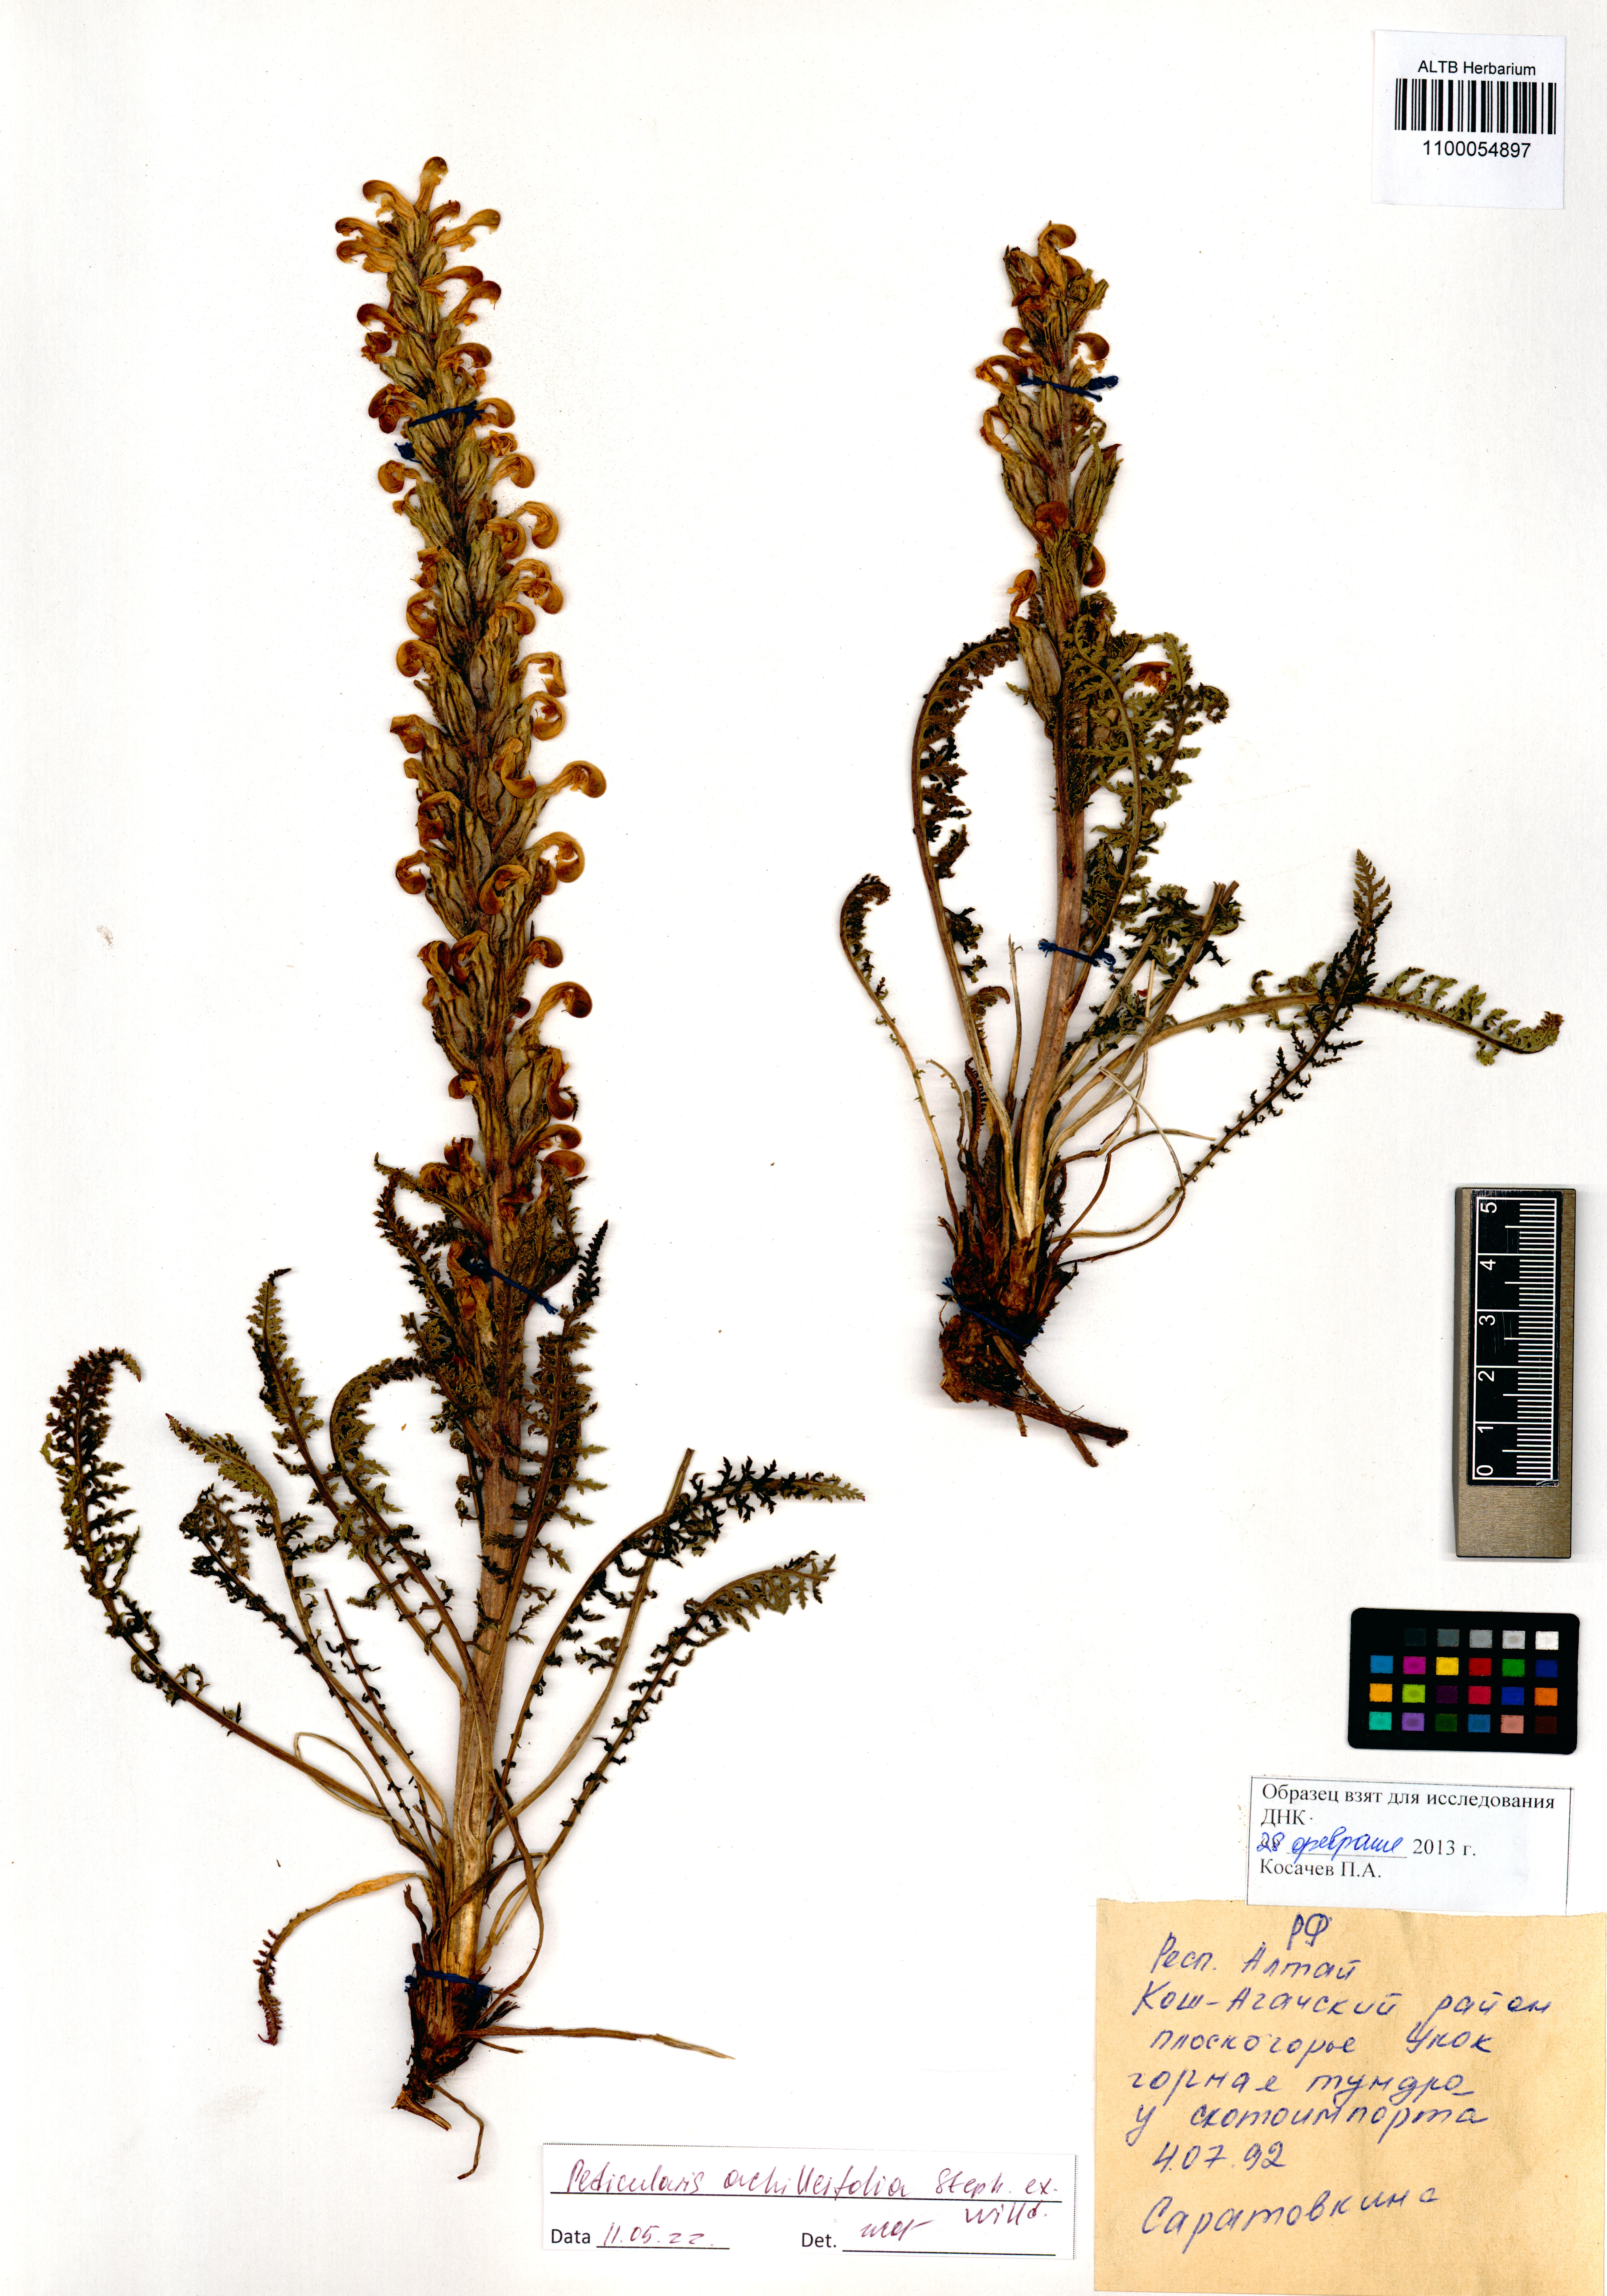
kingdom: Plantae
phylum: Tracheophyta
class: Magnoliopsida
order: Lamiales
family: Orobanchaceae
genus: Pedicularis
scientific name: Pedicularis achilleifolia
